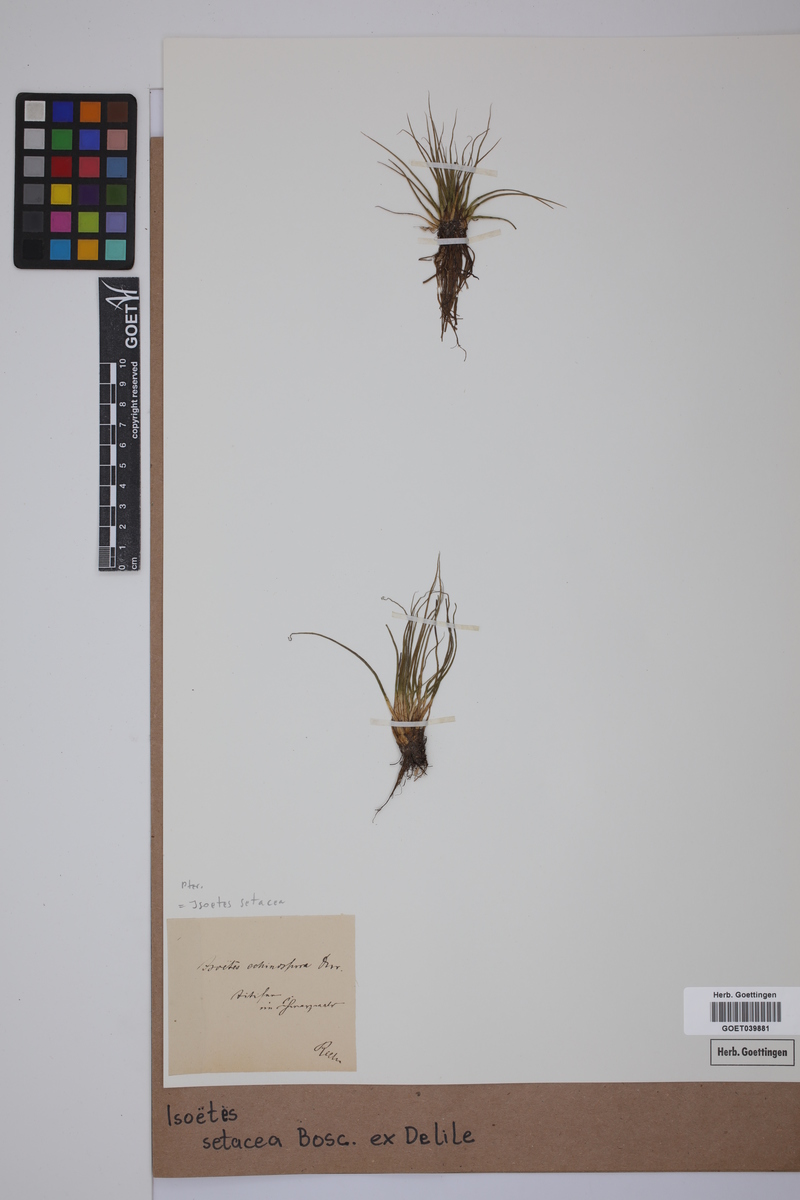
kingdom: Plantae
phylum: Tracheophyta
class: Lycopodiopsida
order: Isoetales
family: Isoetaceae
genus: Isoetes
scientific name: Isoetes longissima
